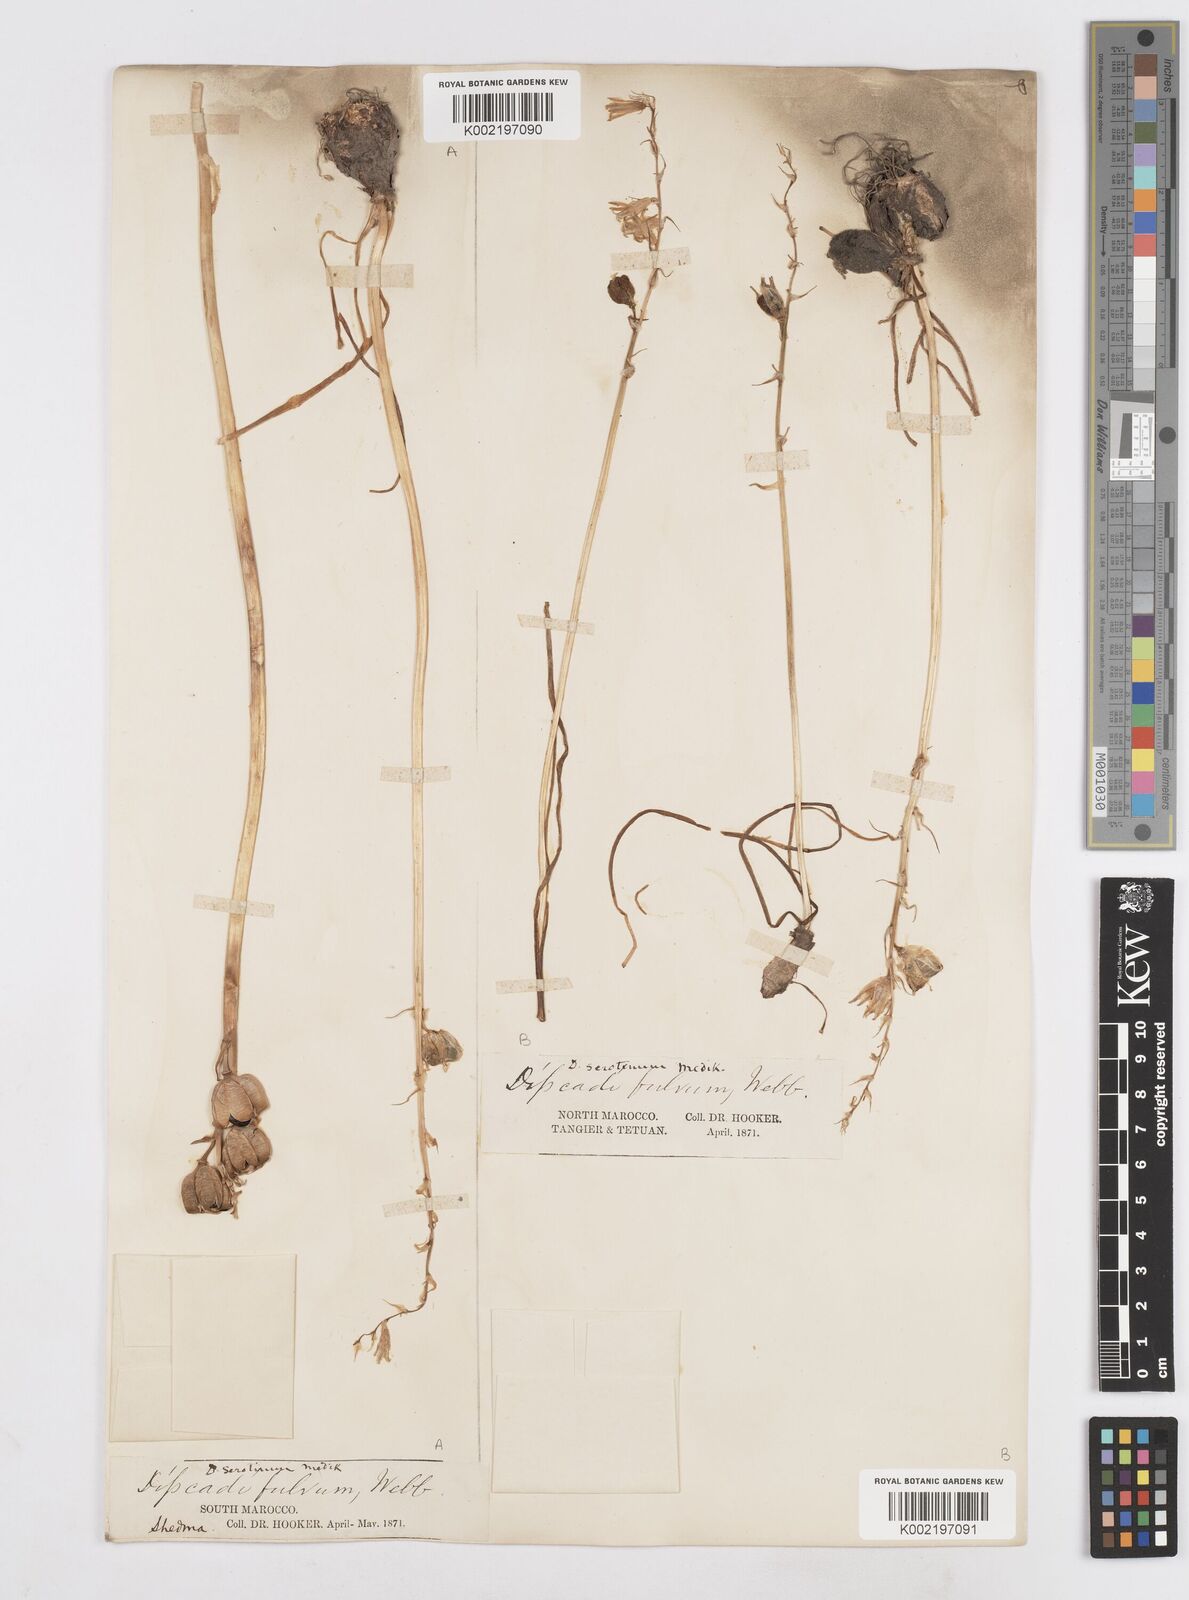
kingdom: Plantae
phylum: Tracheophyta
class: Liliopsida
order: Asparagales
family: Asparagaceae
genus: Dipcadi
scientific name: Dipcadi serotinum
